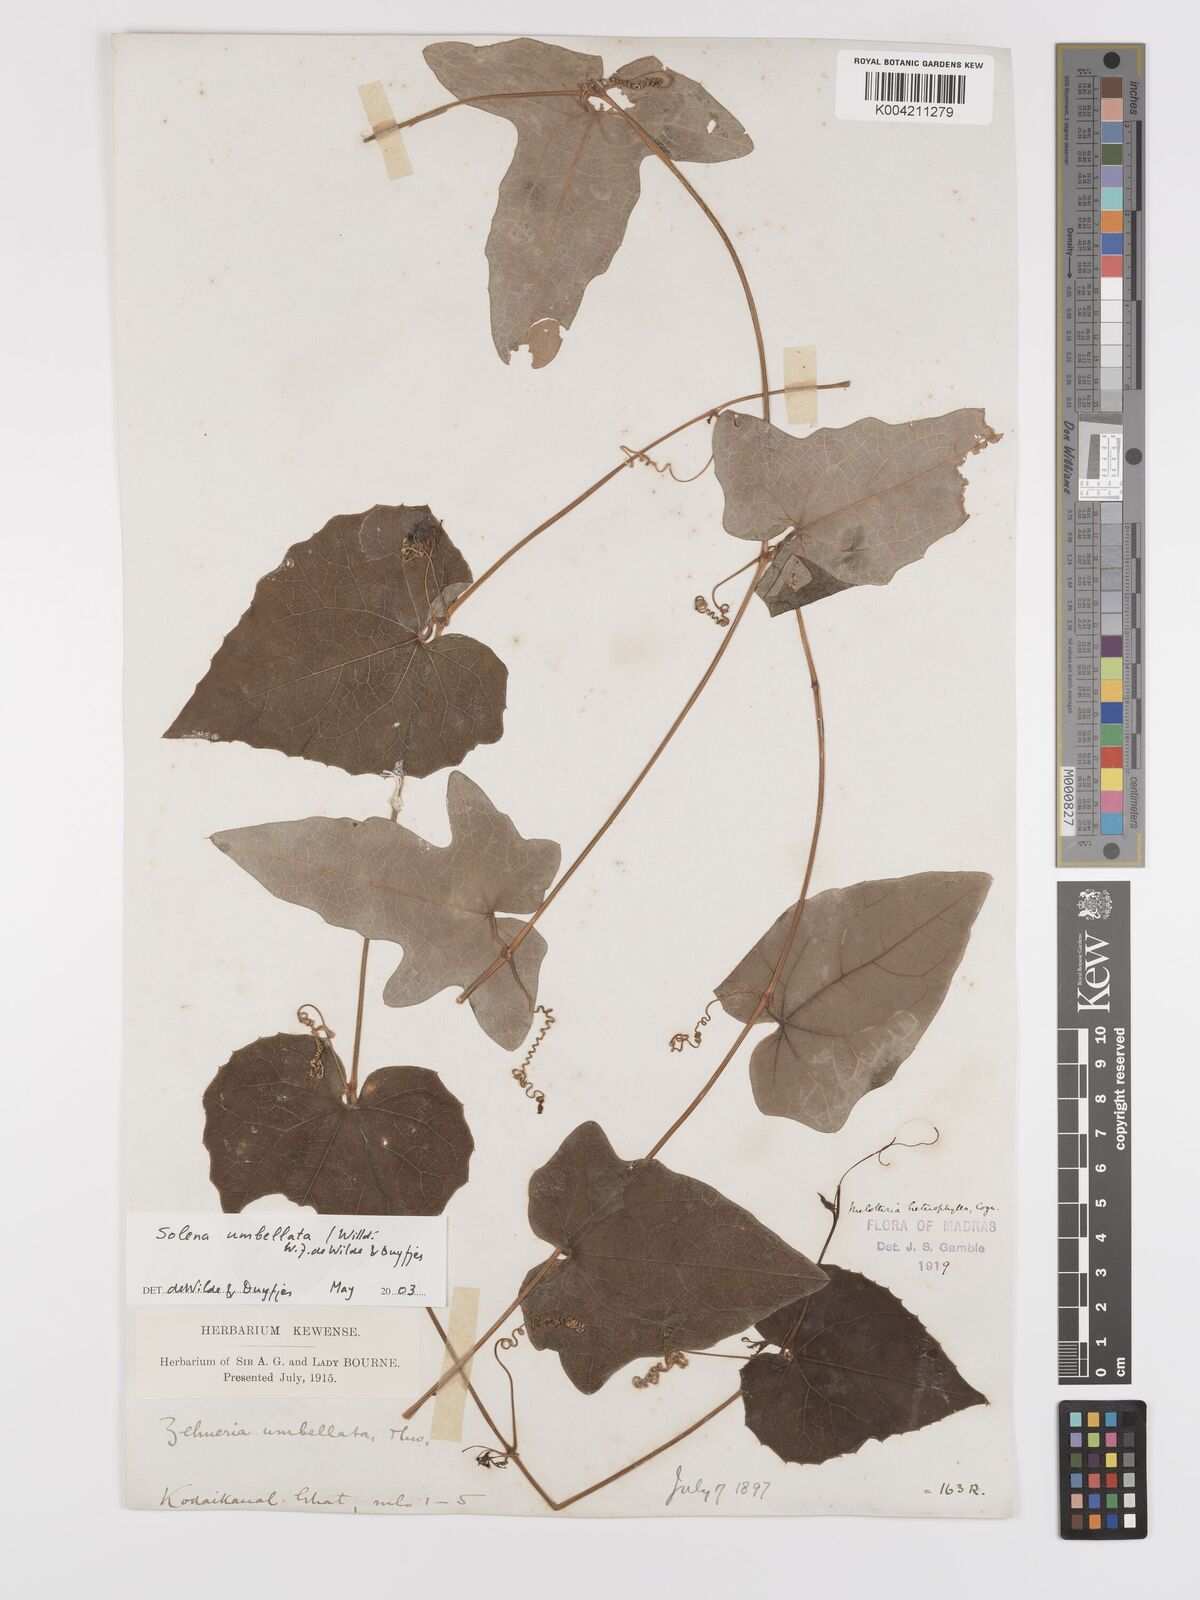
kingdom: Plantae
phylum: Tracheophyta
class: Magnoliopsida
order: Cucurbitales
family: Cucurbitaceae
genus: Solena
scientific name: Solena amplexicaulis
